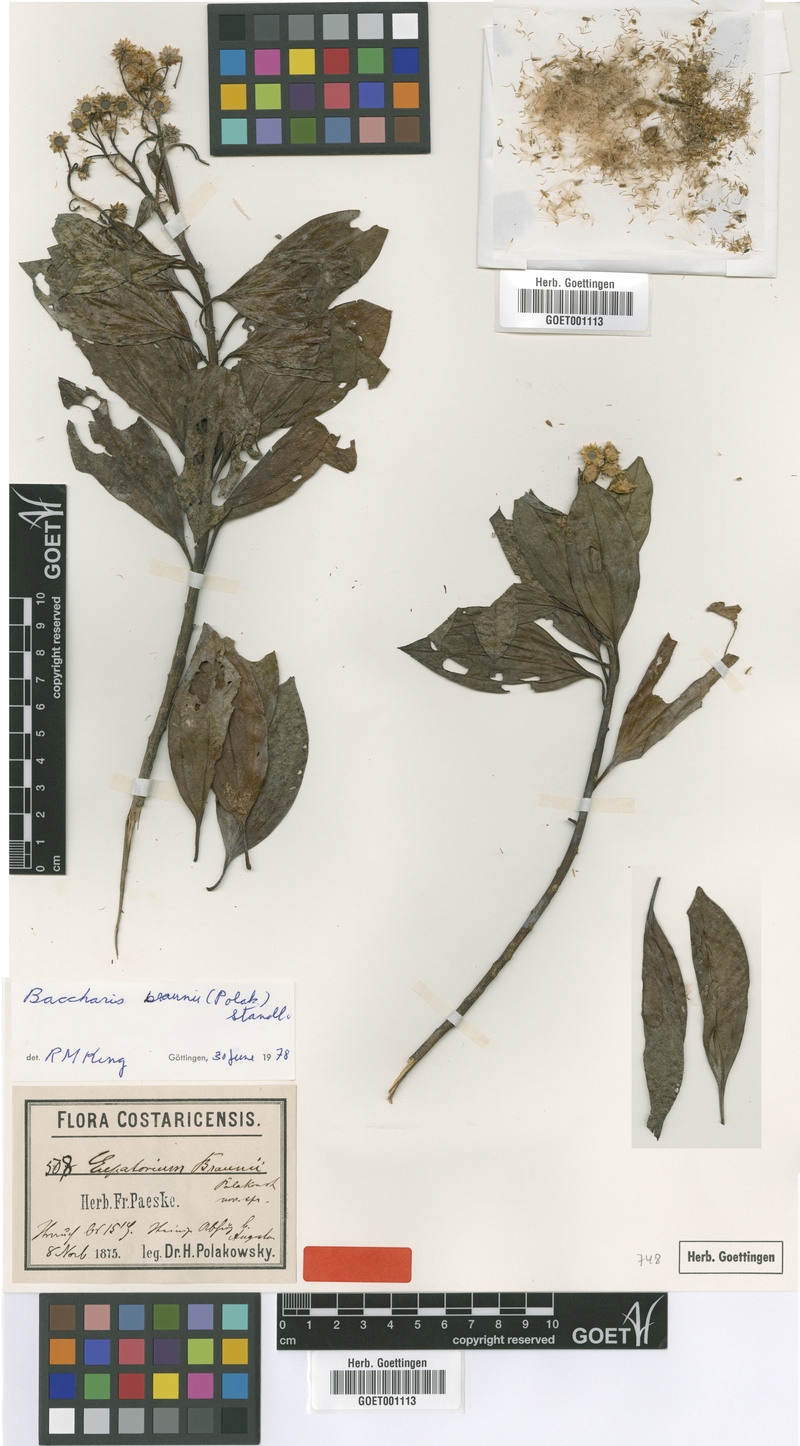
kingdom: Plantae
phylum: Tracheophyta
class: Magnoliopsida
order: Asterales
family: Asteraceae
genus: Baccharis
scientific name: Baccharis pedunculata
